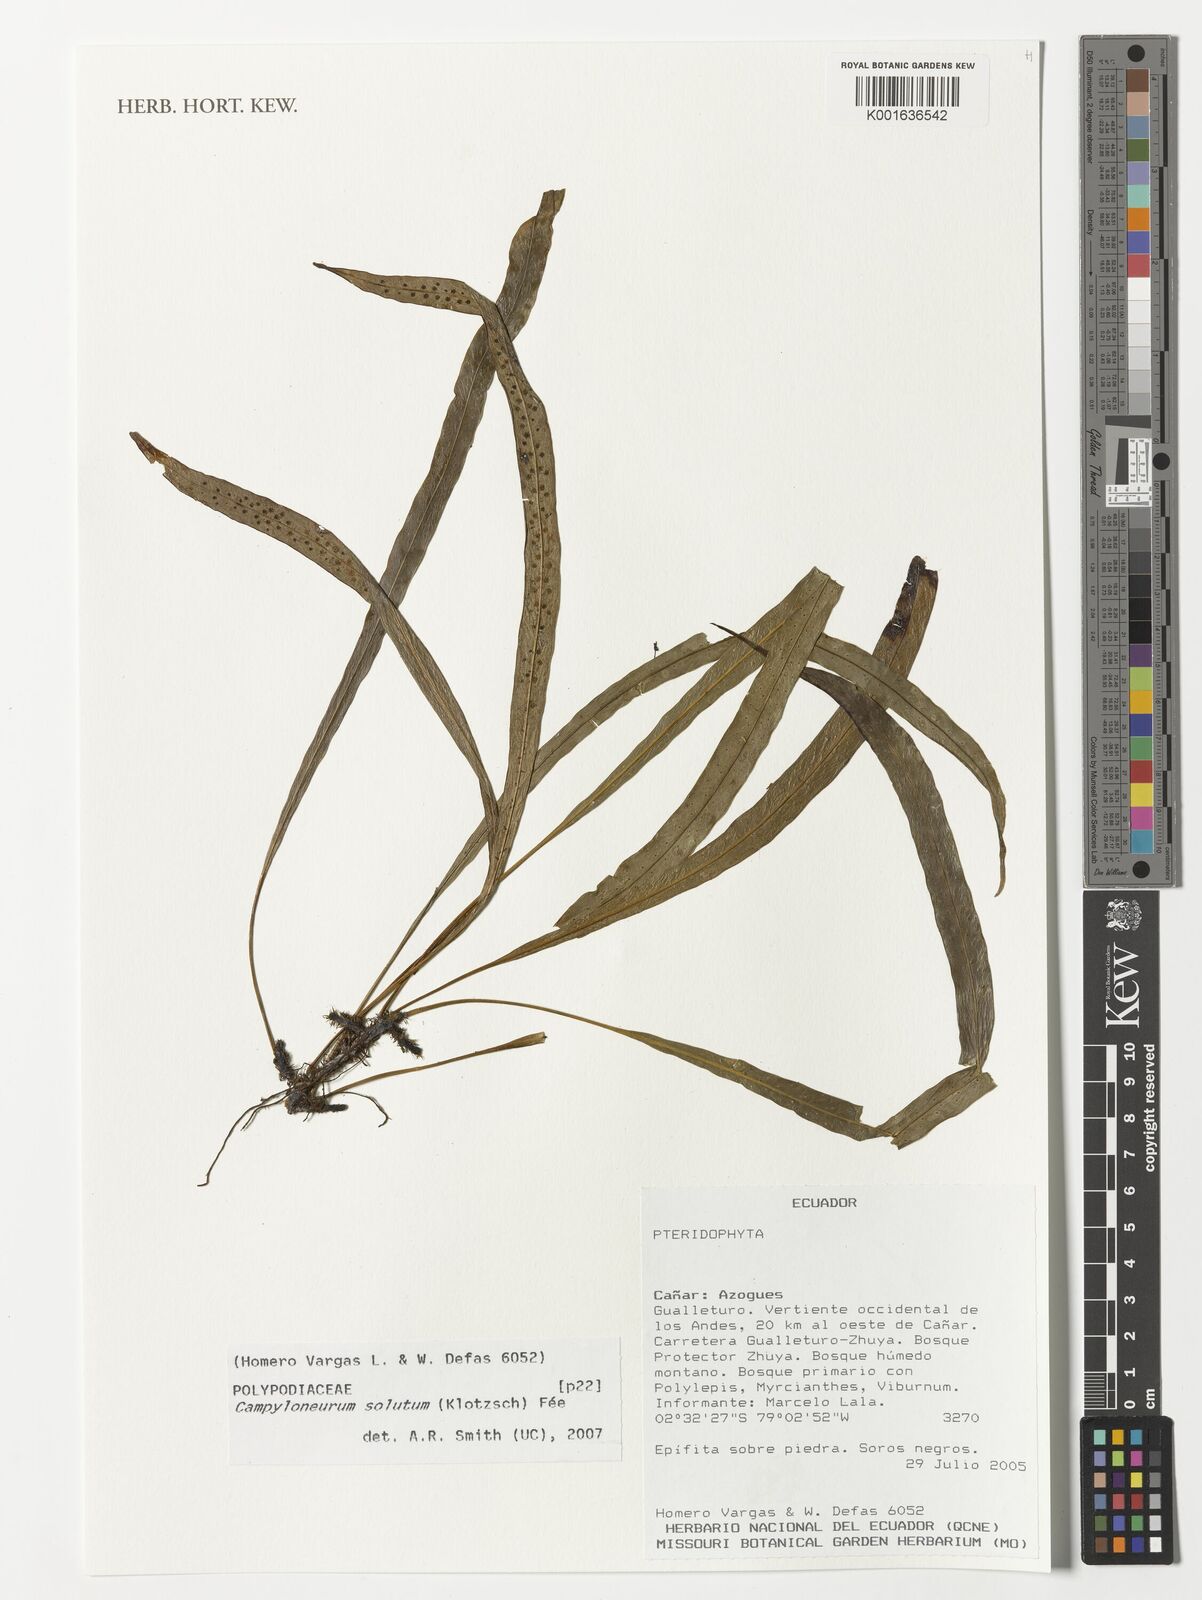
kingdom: Plantae
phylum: Tracheophyta
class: Polypodiopsida
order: Polypodiales
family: Polypodiaceae
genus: Campyloneurum
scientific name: Campyloneurum solutum
